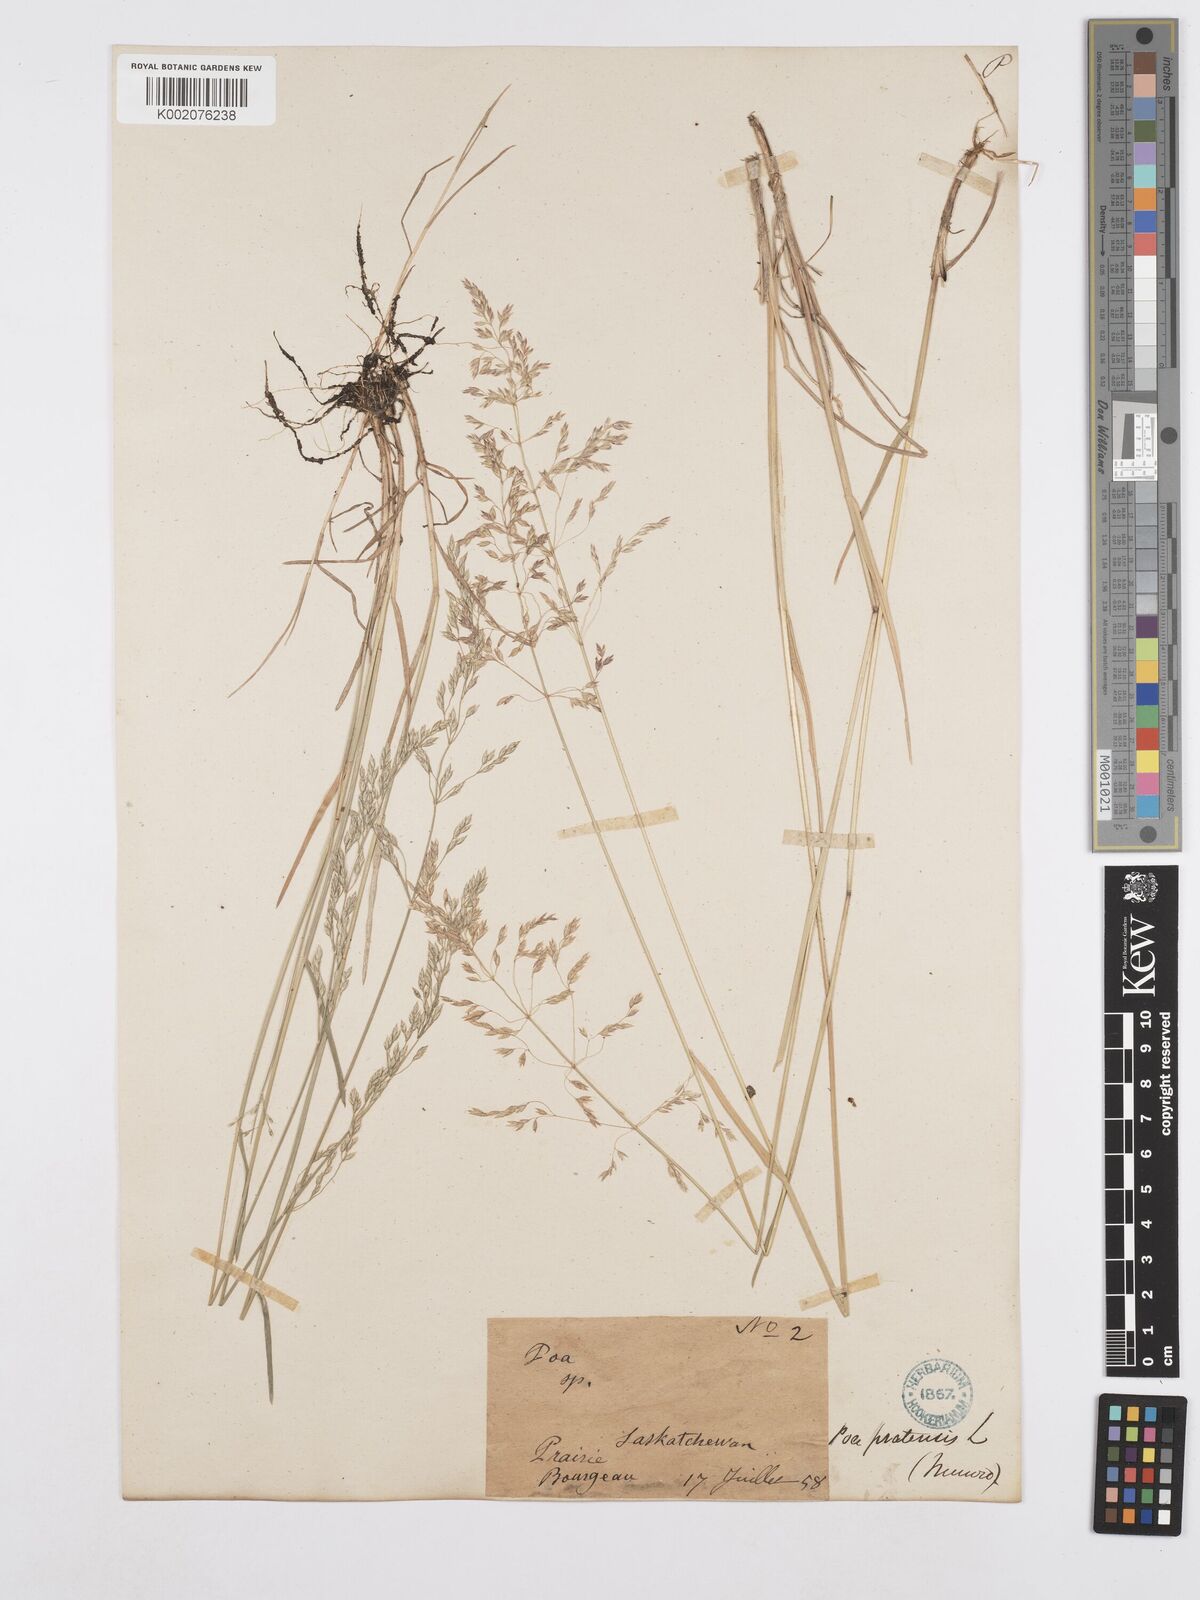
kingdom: Plantae
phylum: Tracheophyta
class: Liliopsida
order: Poales
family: Poaceae
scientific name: Poaceae
